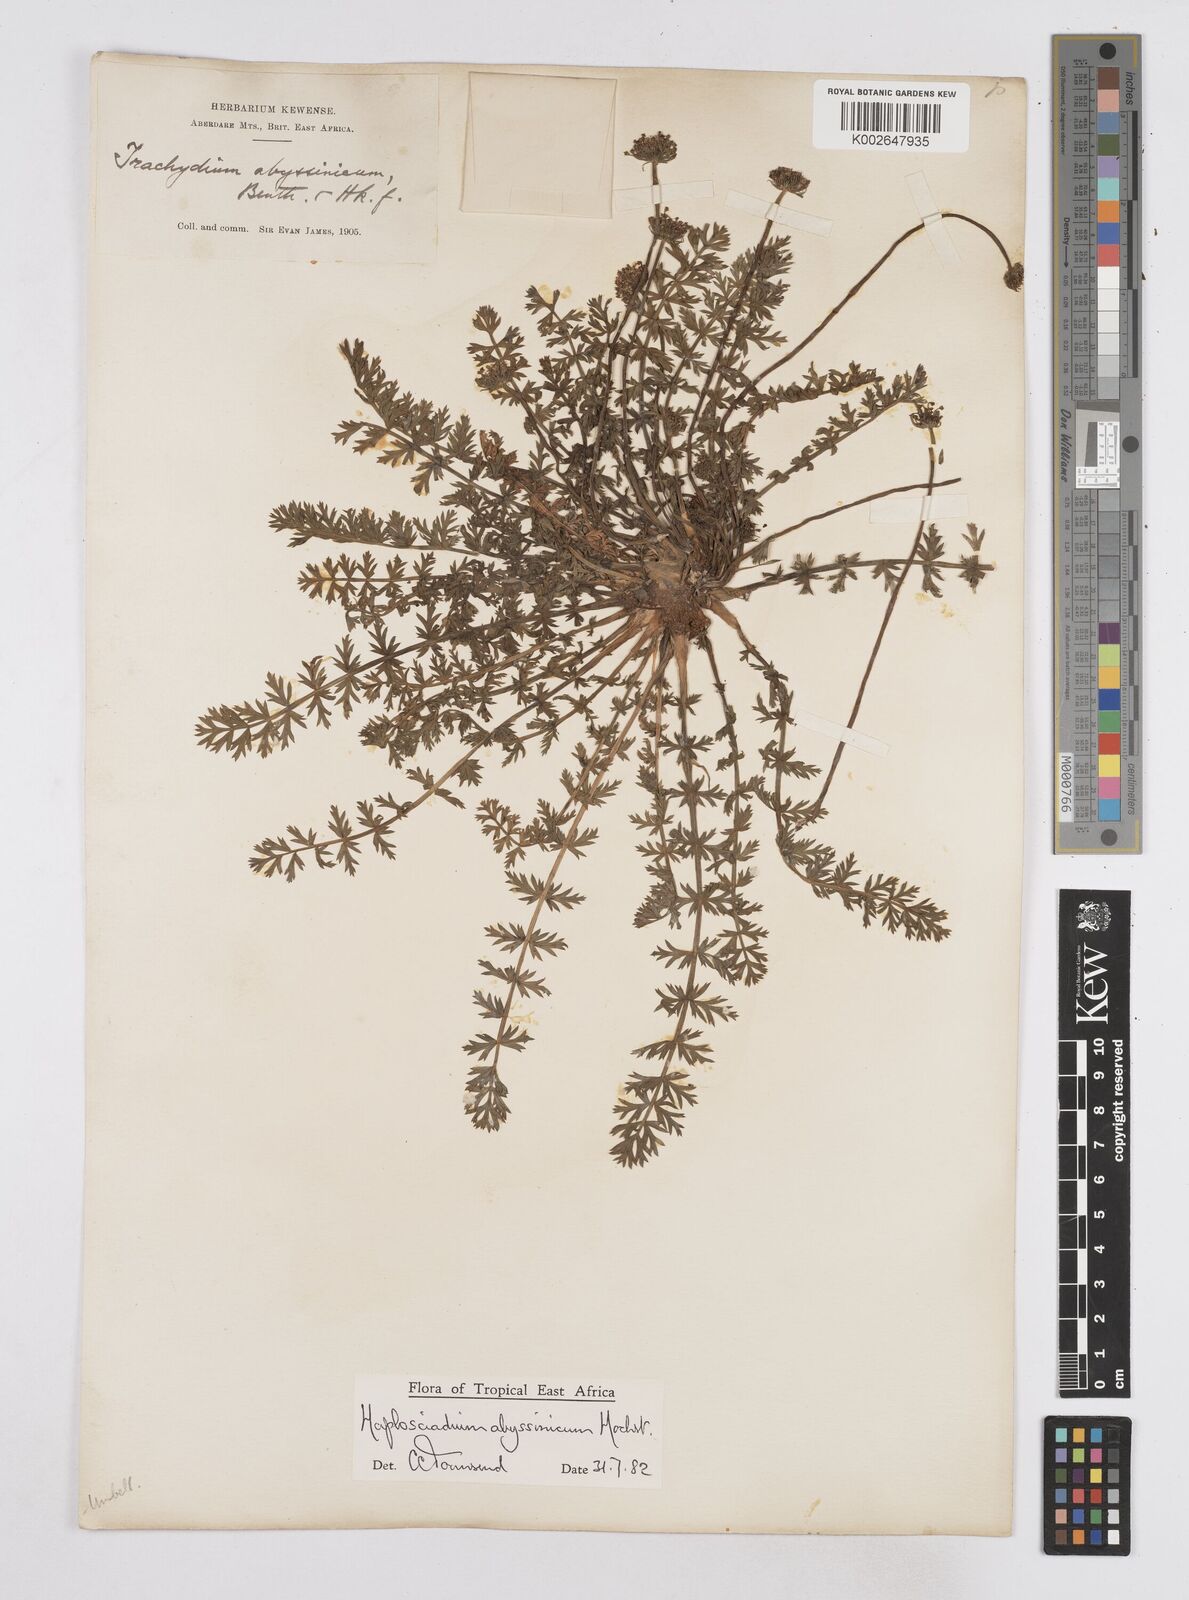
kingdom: Plantae
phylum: Tracheophyta
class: Magnoliopsida
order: Apiales
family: Apiaceae
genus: Haplosciadium
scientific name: Haplosciadium abyssinicum
